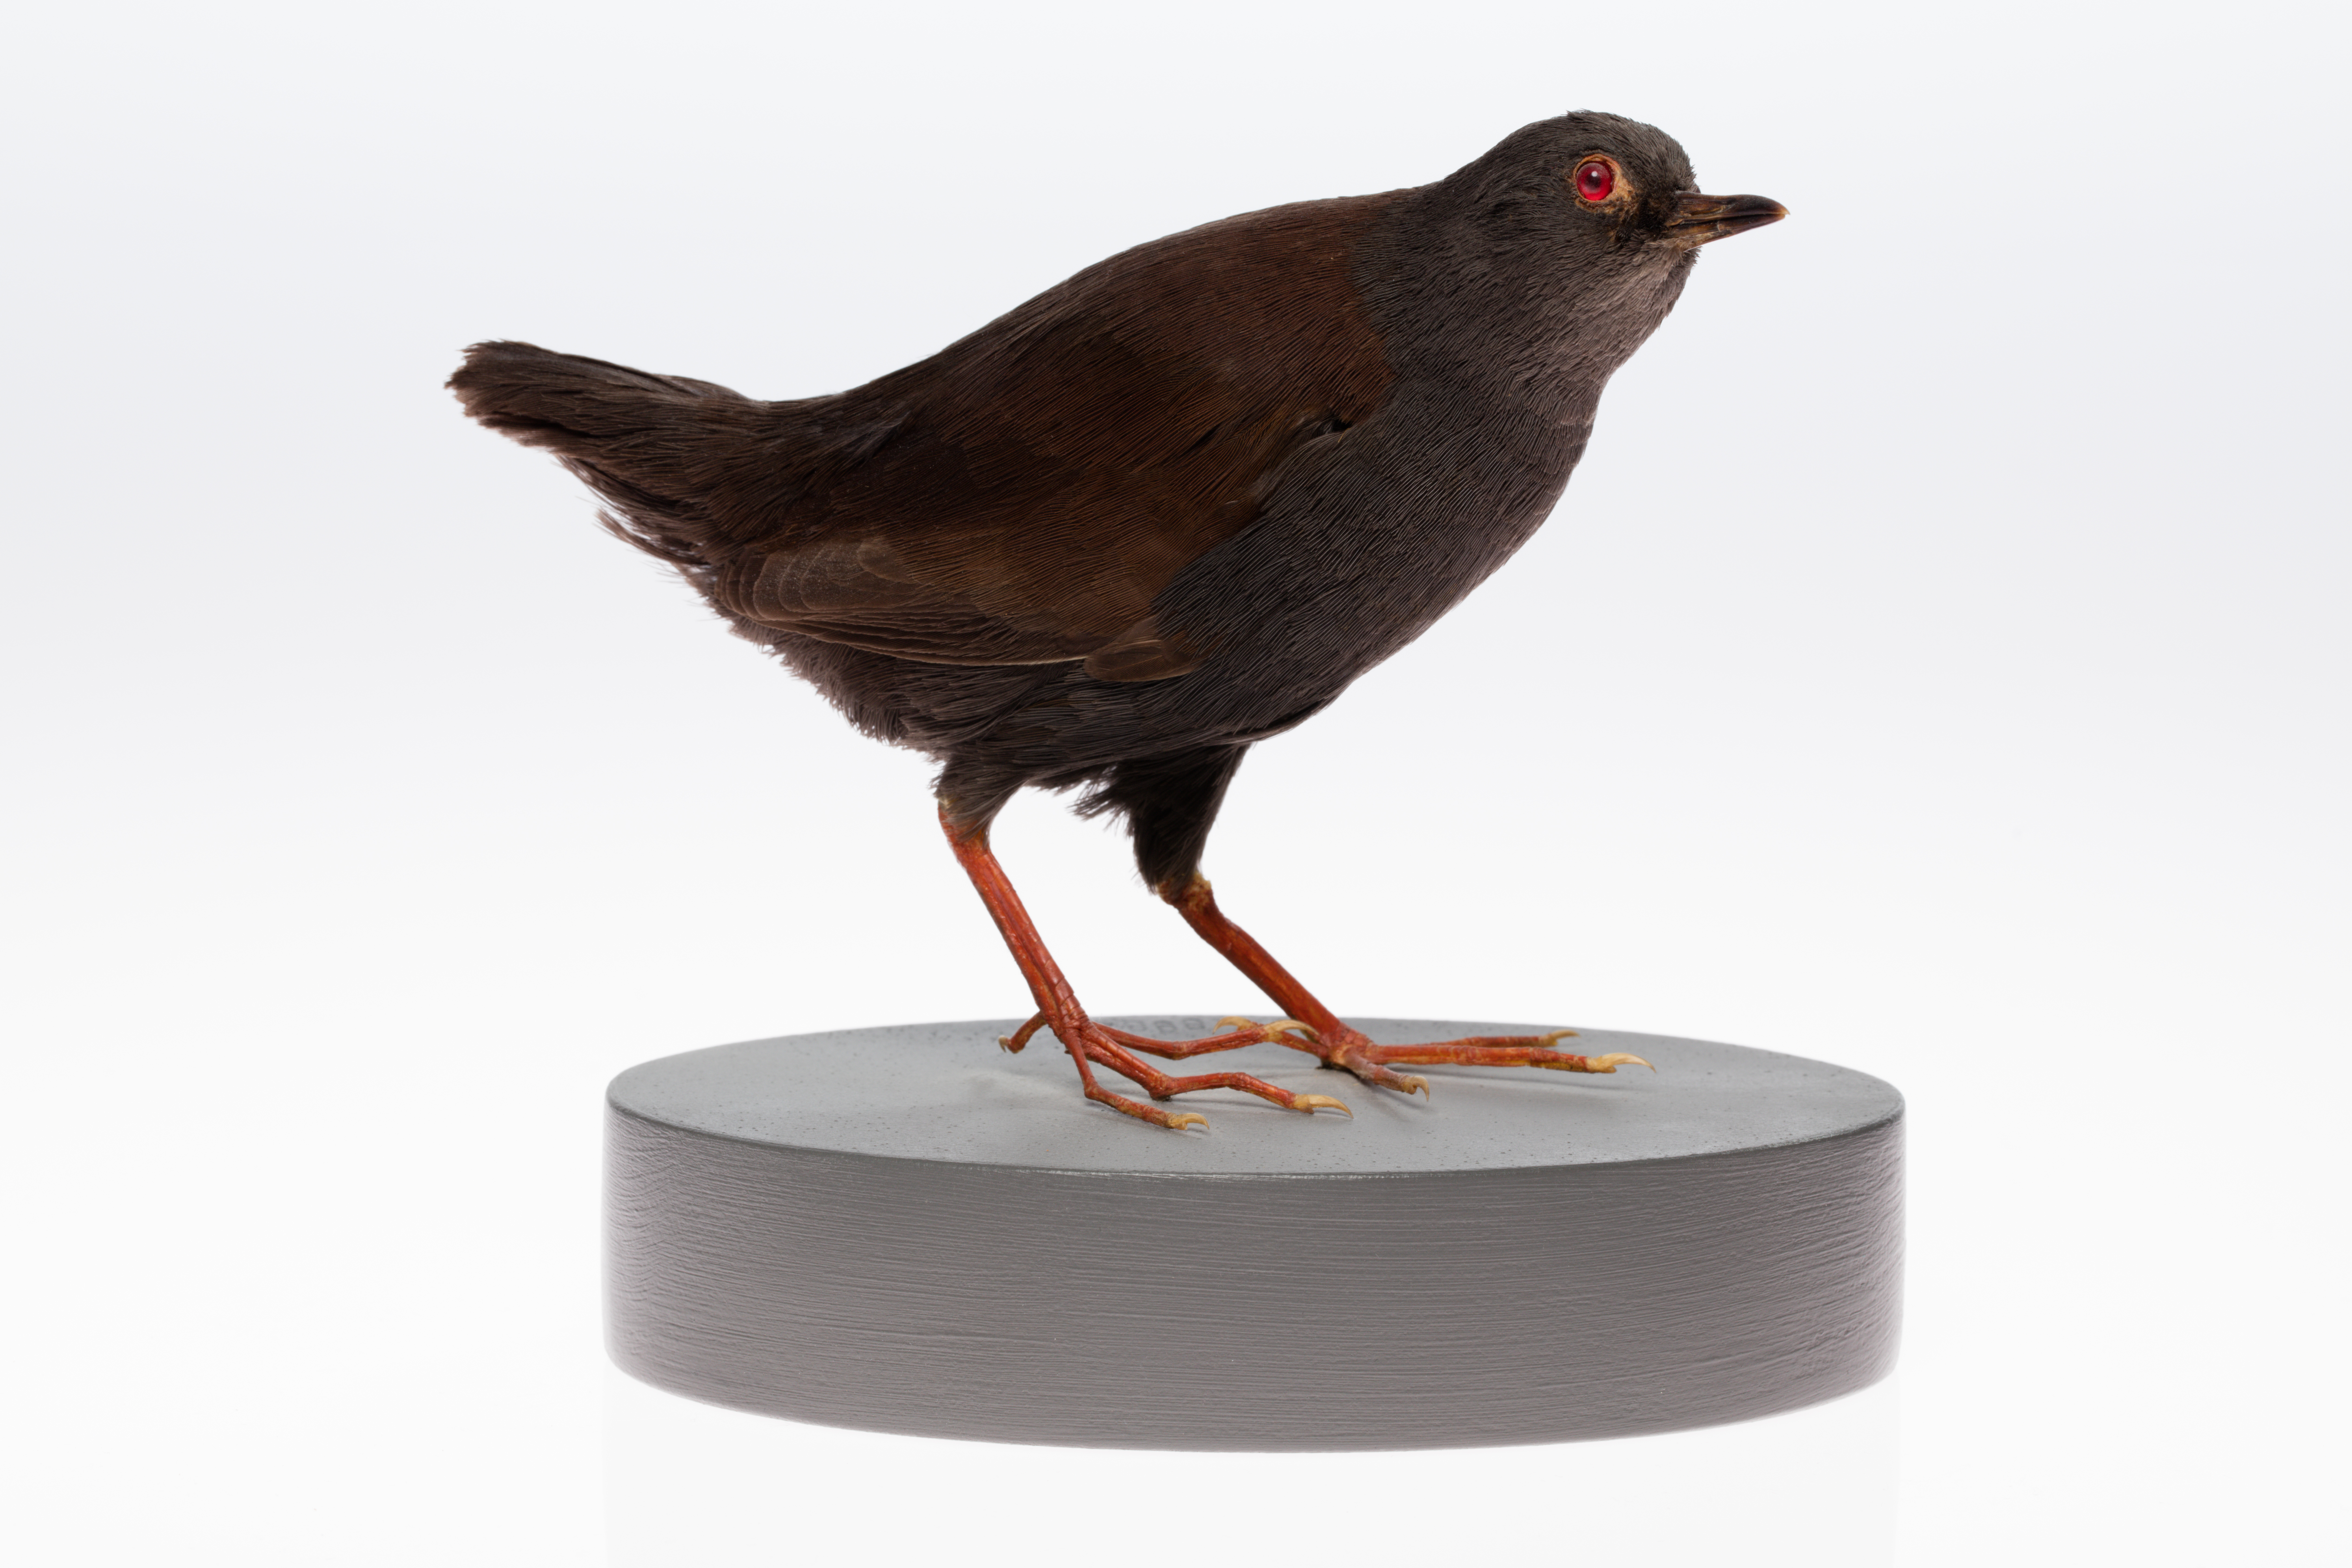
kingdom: Animalia
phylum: Chordata
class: Aves
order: Gruiformes
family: Rallidae
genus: Porzana
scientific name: Porzana tabuensis
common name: Spotless crake
